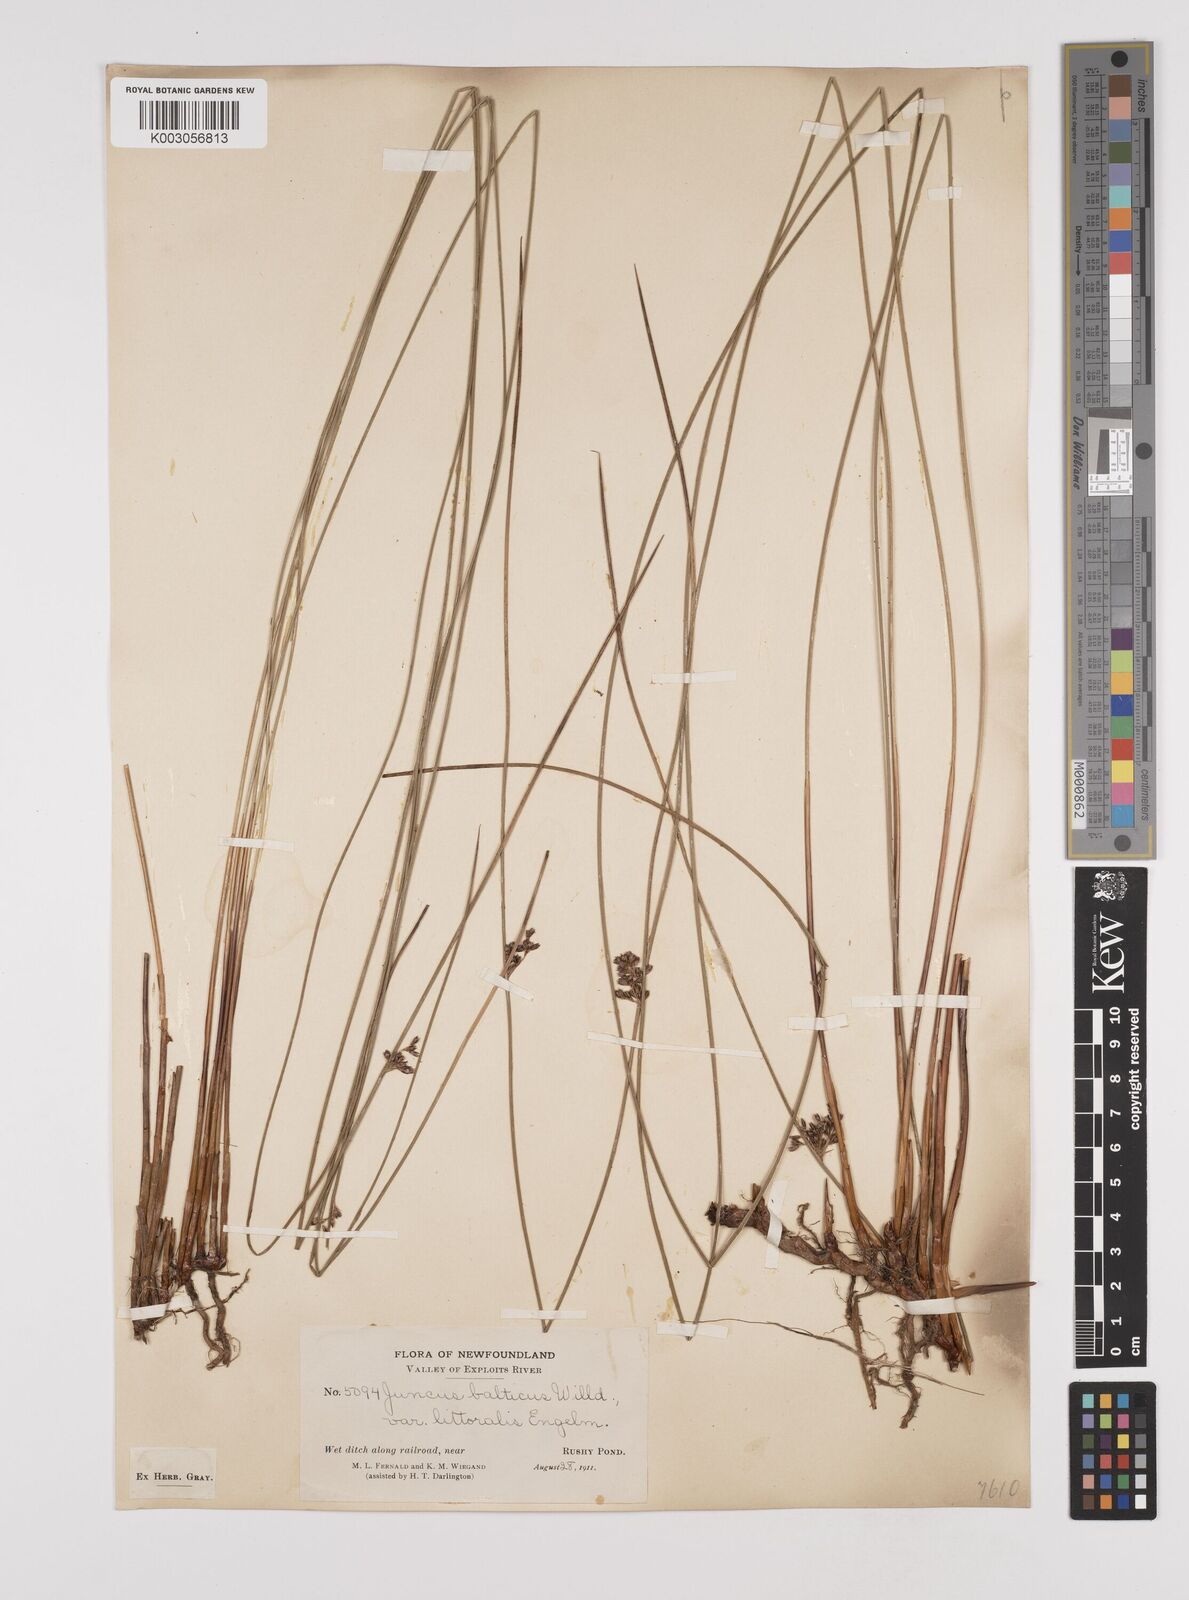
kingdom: Plantae
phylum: Tracheophyta
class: Liliopsida
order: Poales
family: Juncaceae
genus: Juncus
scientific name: Juncus balticus
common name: Baltic rush
